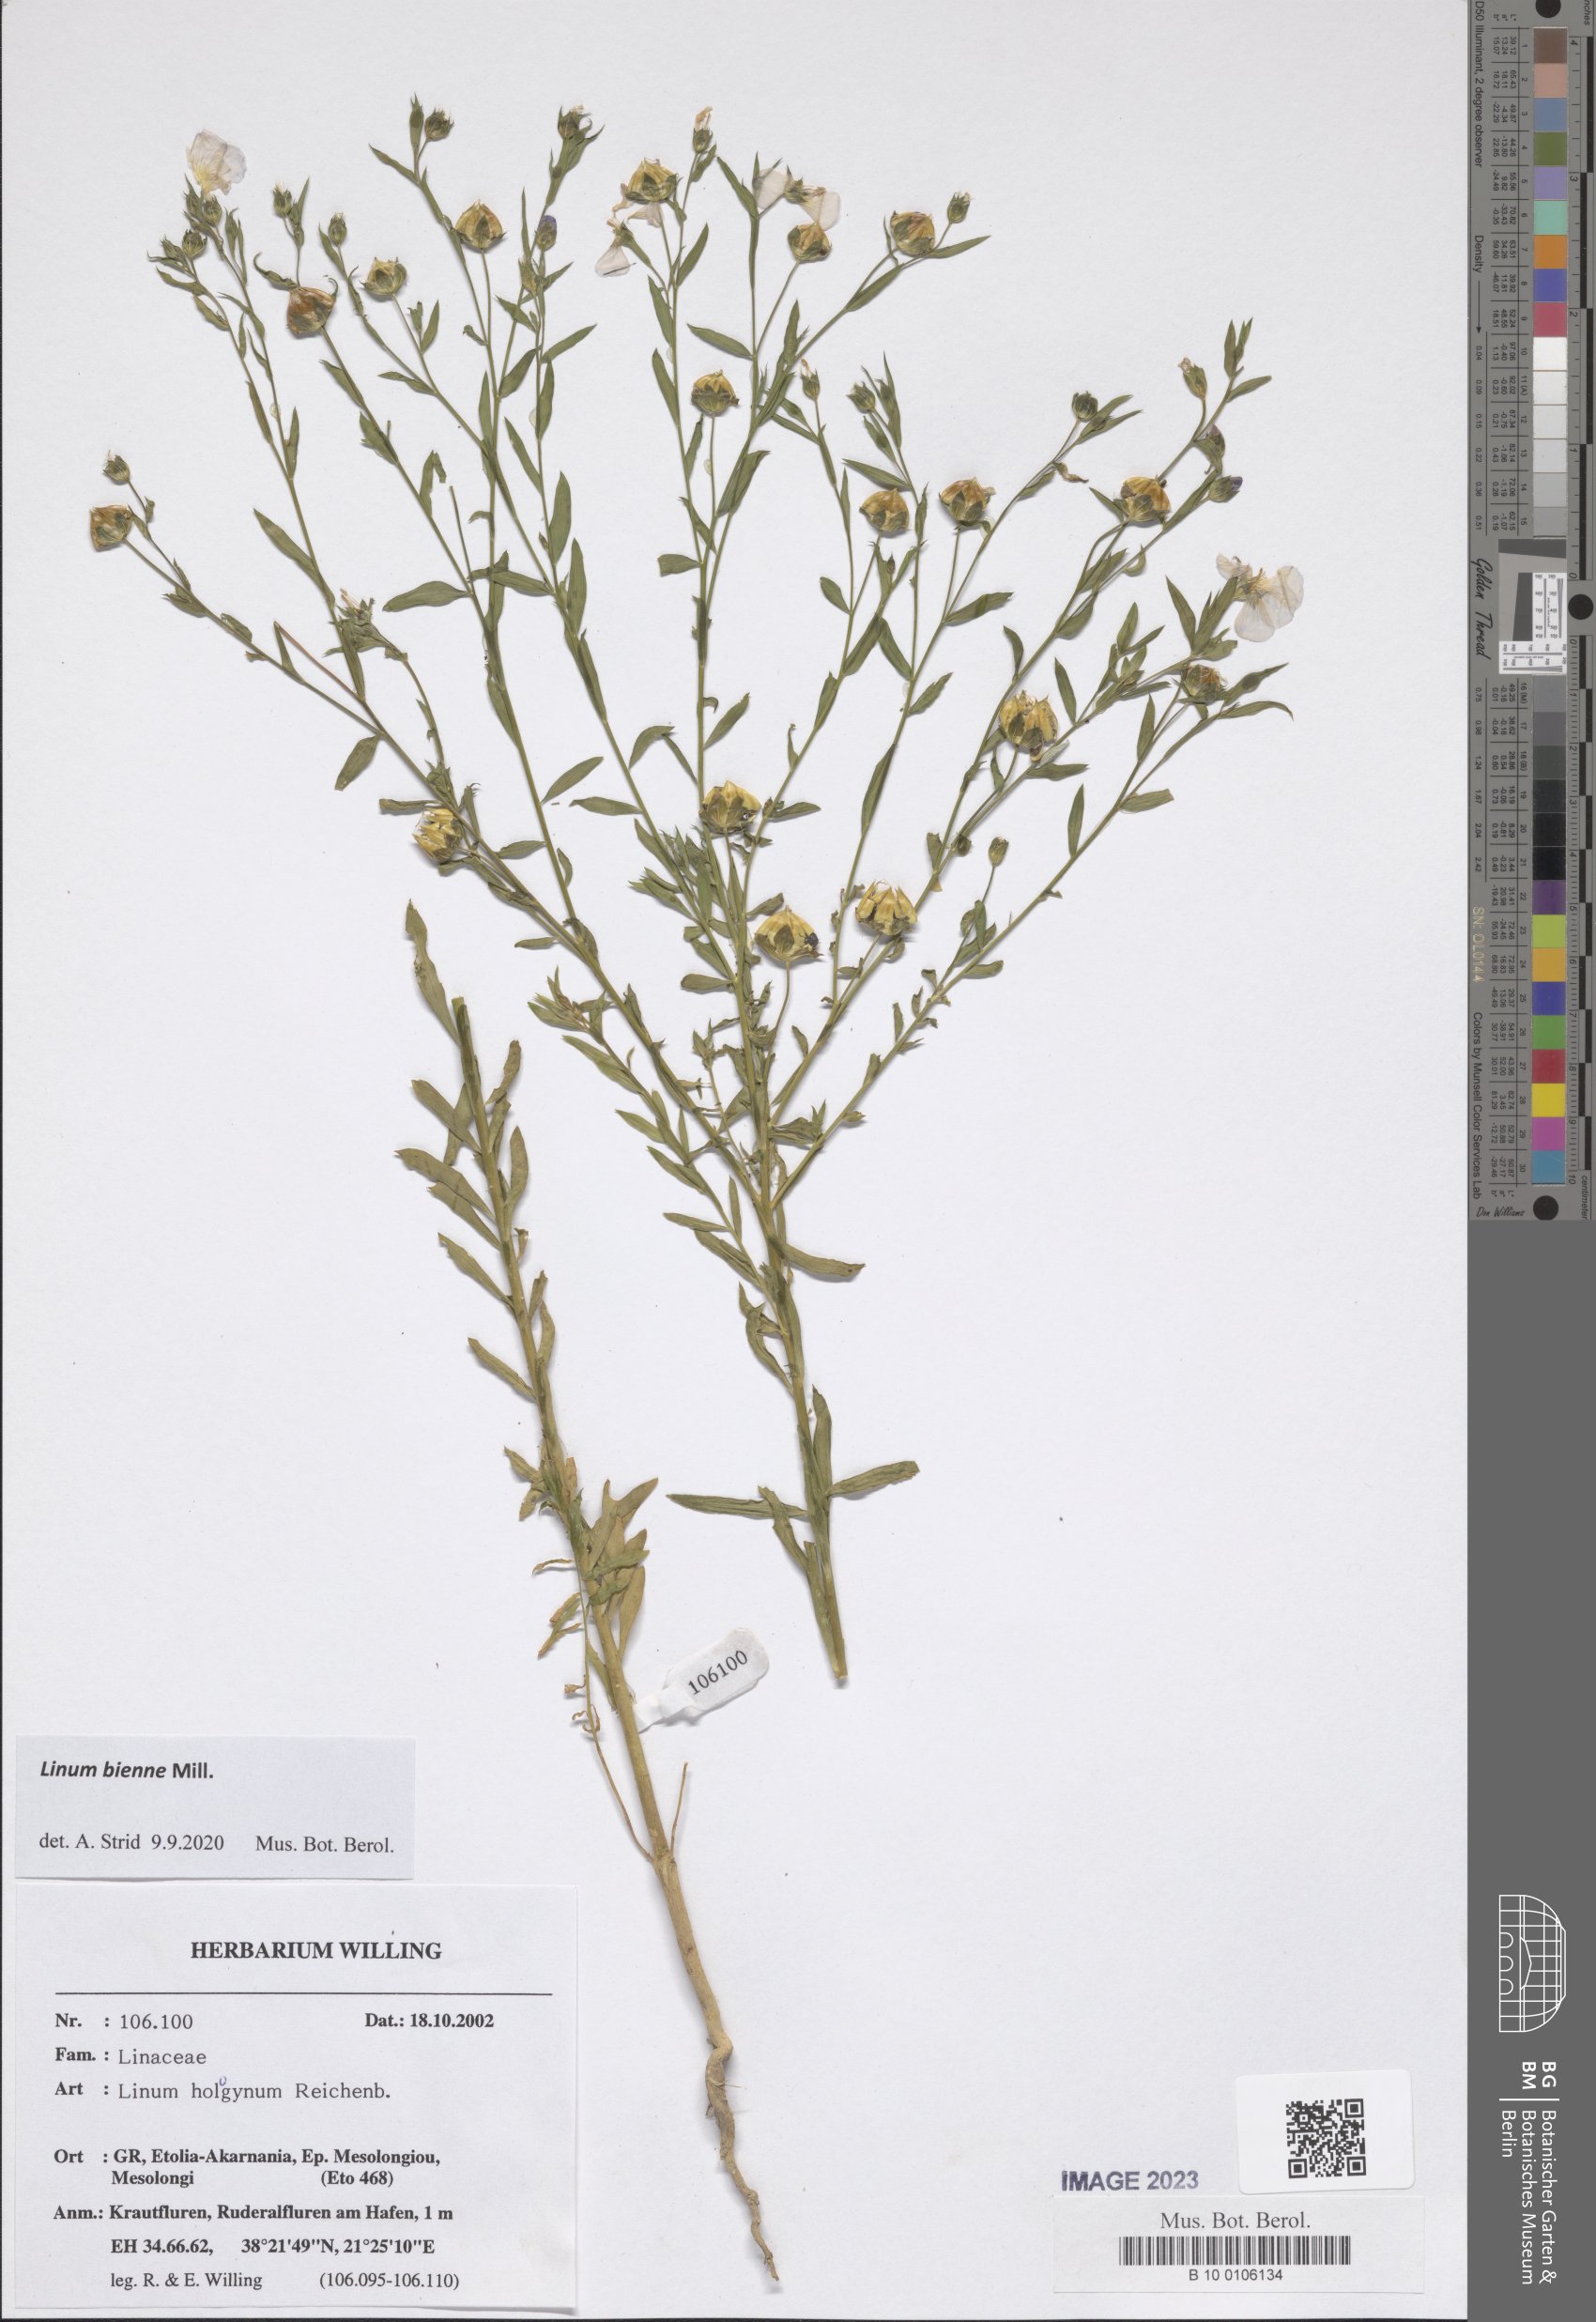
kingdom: Plantae
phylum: Tracheophyta
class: Magnoliopsida
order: Malpighiales
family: Linaceae
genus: Linum
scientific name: Linum bienne
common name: Pale flax
